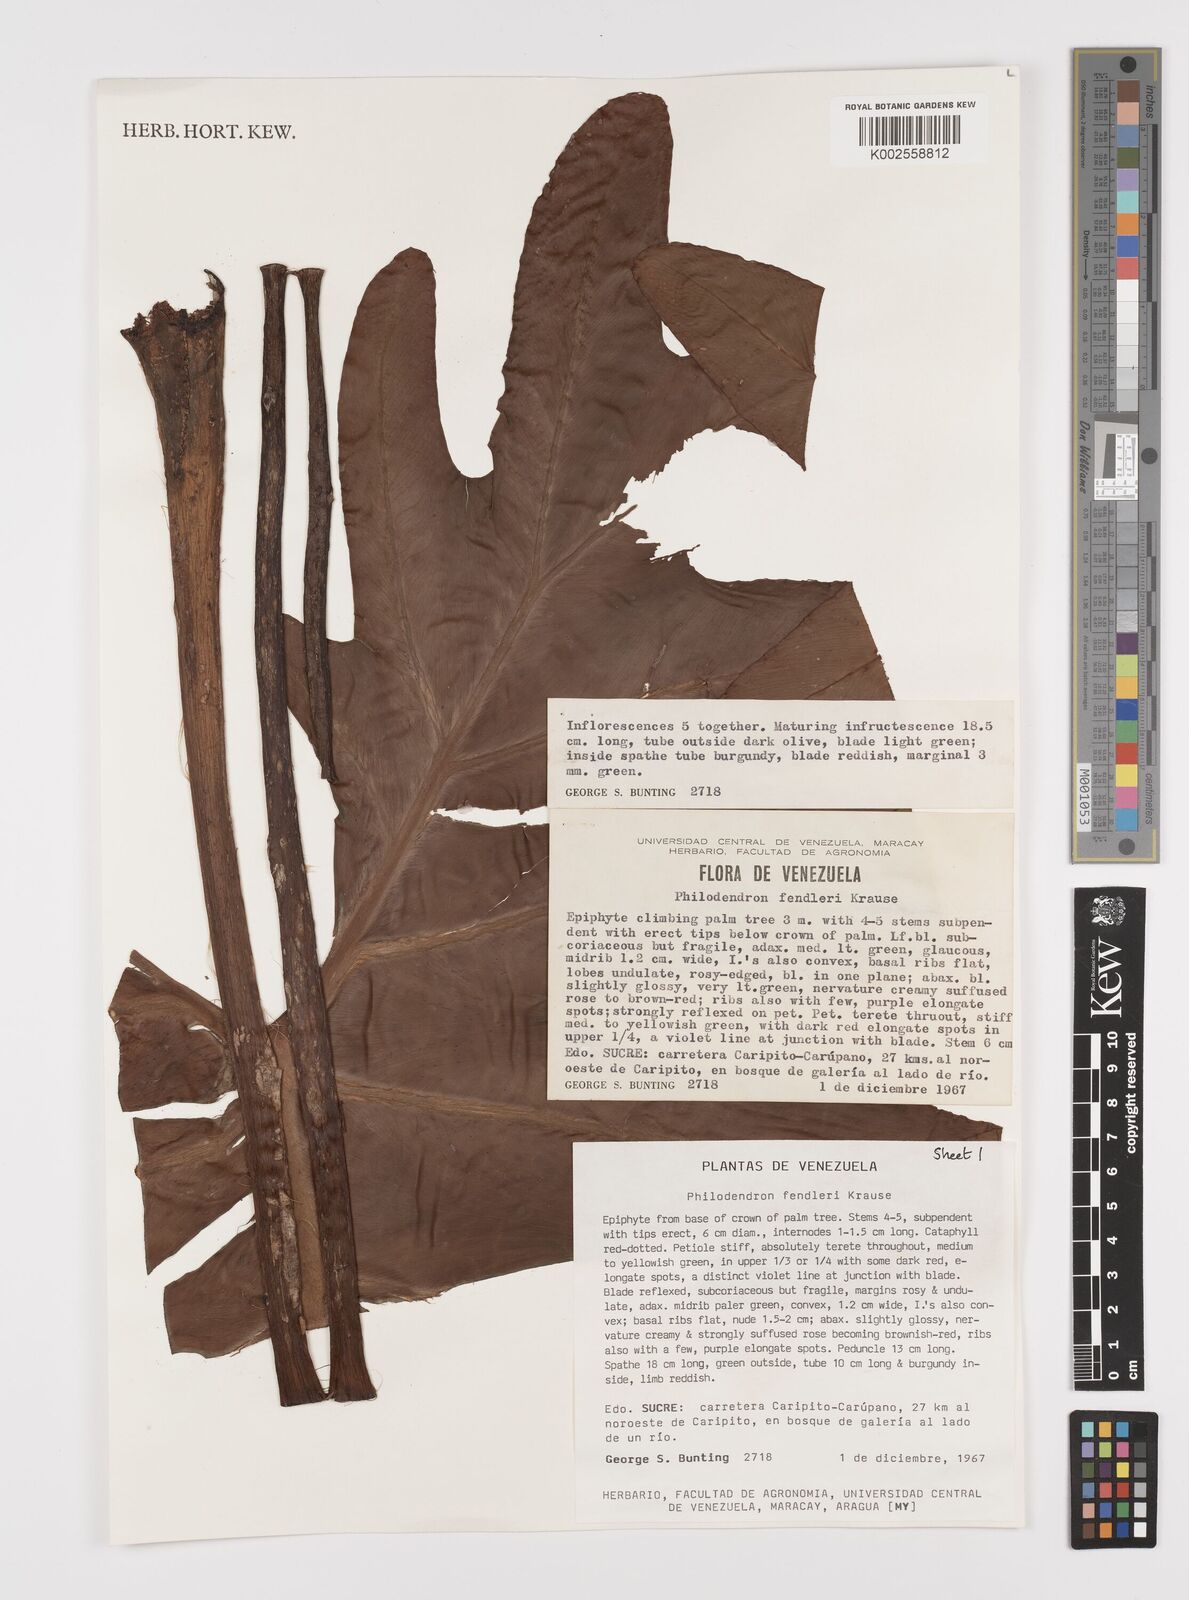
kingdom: Plantae
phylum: Tracheophyta
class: Liliopsida
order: Alismatales
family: Araceae
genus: Philodendron
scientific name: Philodendron fendleri
